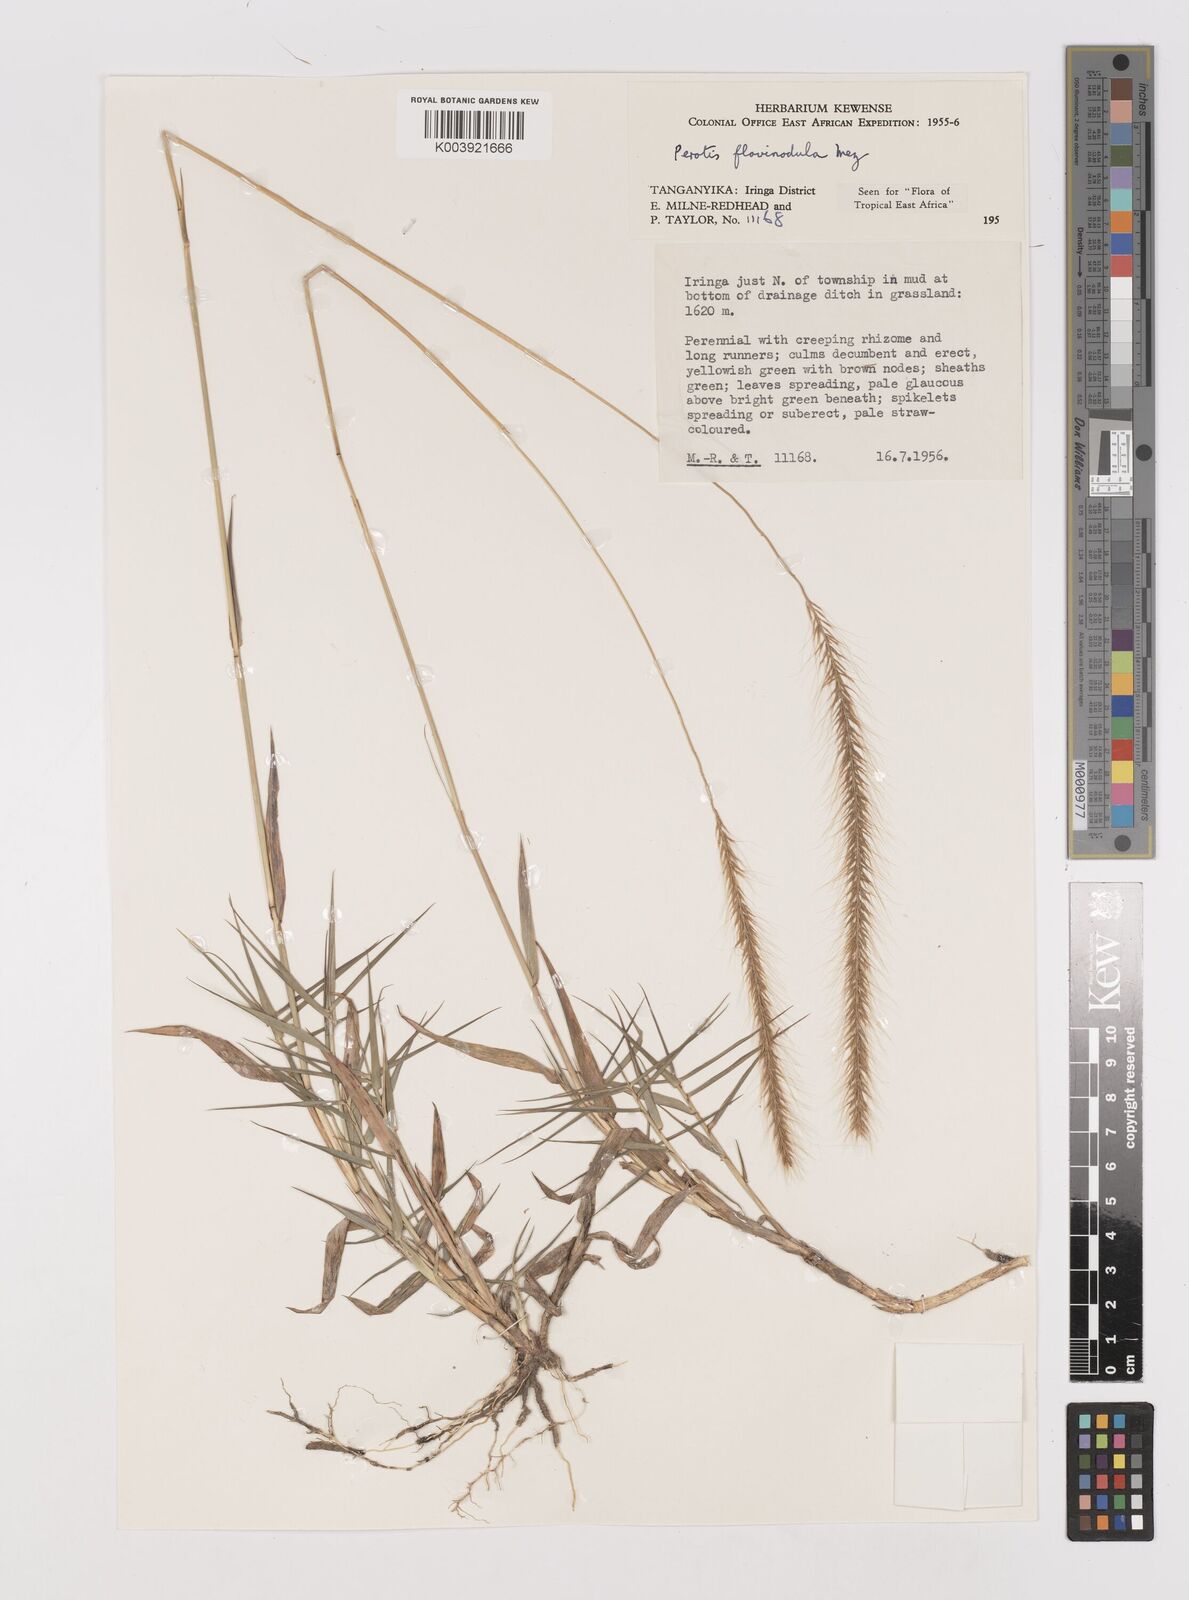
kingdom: Plantae
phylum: Tracheophyta
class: Liliopsida
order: Poales
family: Poaceae
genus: Perotis
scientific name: Perotis flavinodula
